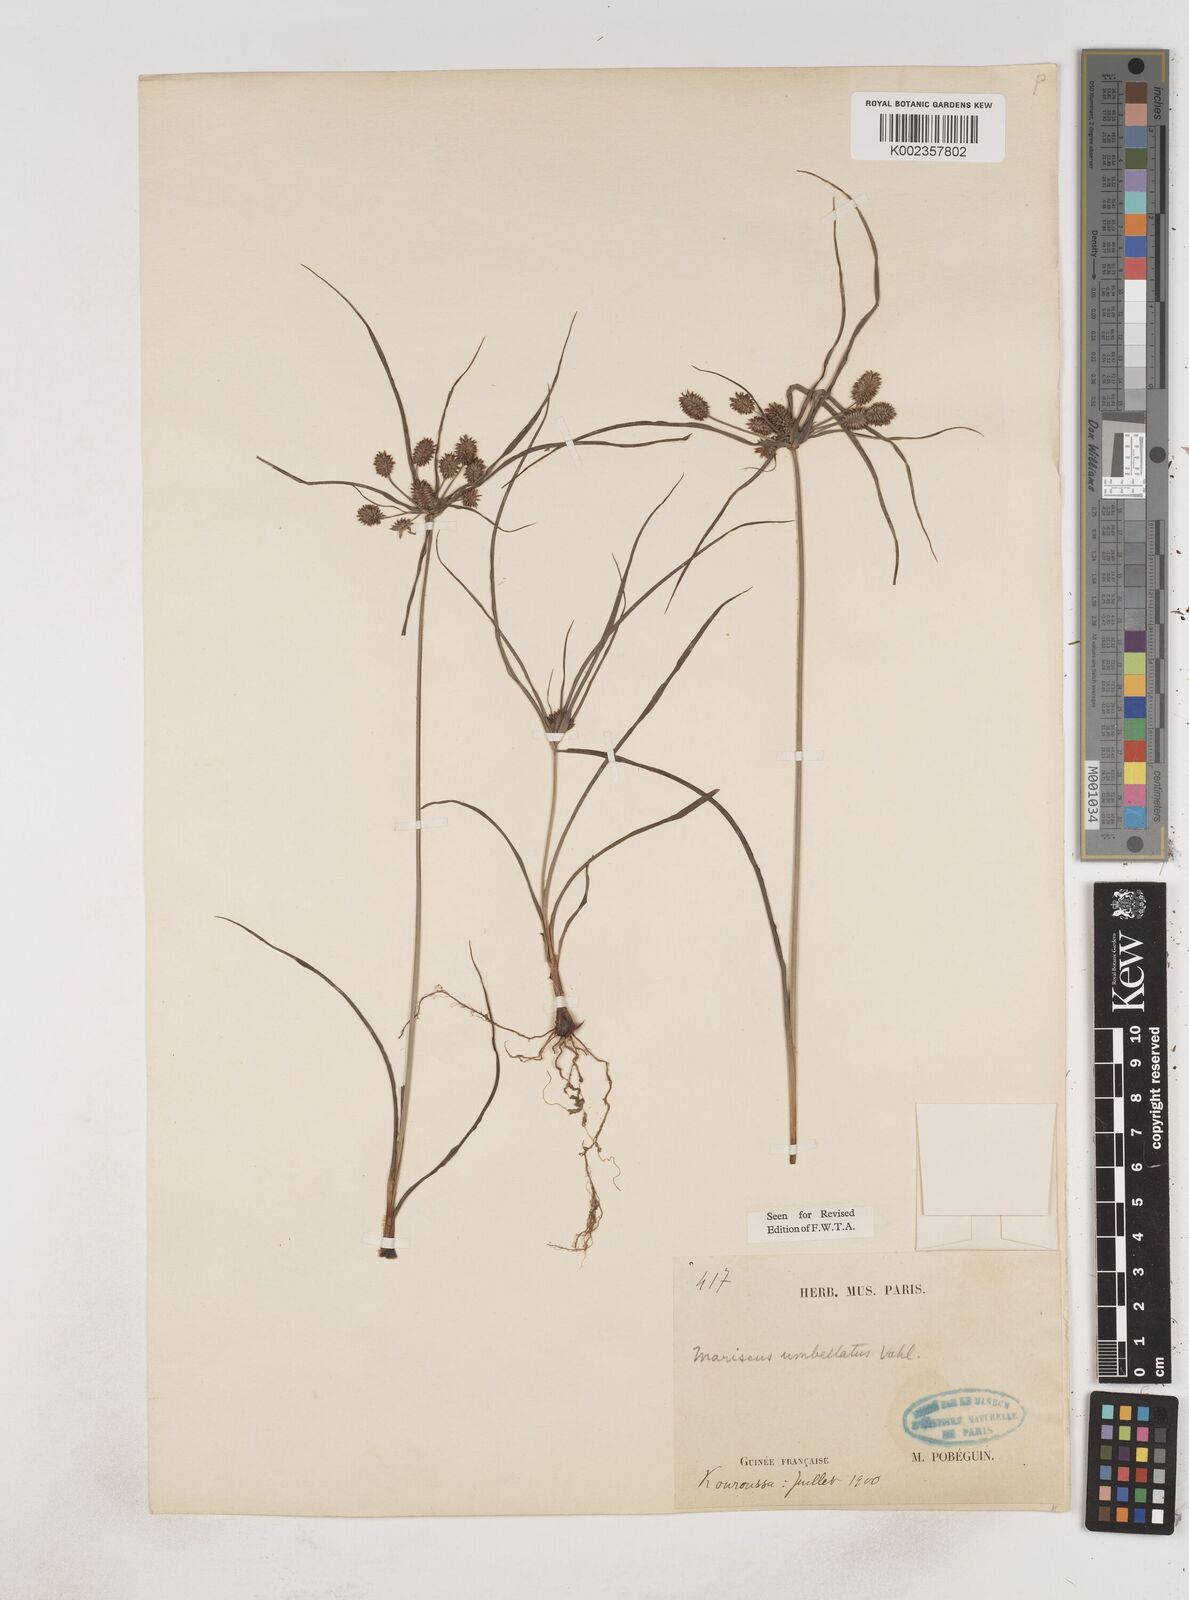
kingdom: Plantae
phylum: Tracheophyta
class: Liliopsida
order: Poales
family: Cyperaceae
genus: Cyperus
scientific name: Cyperus sublimis
